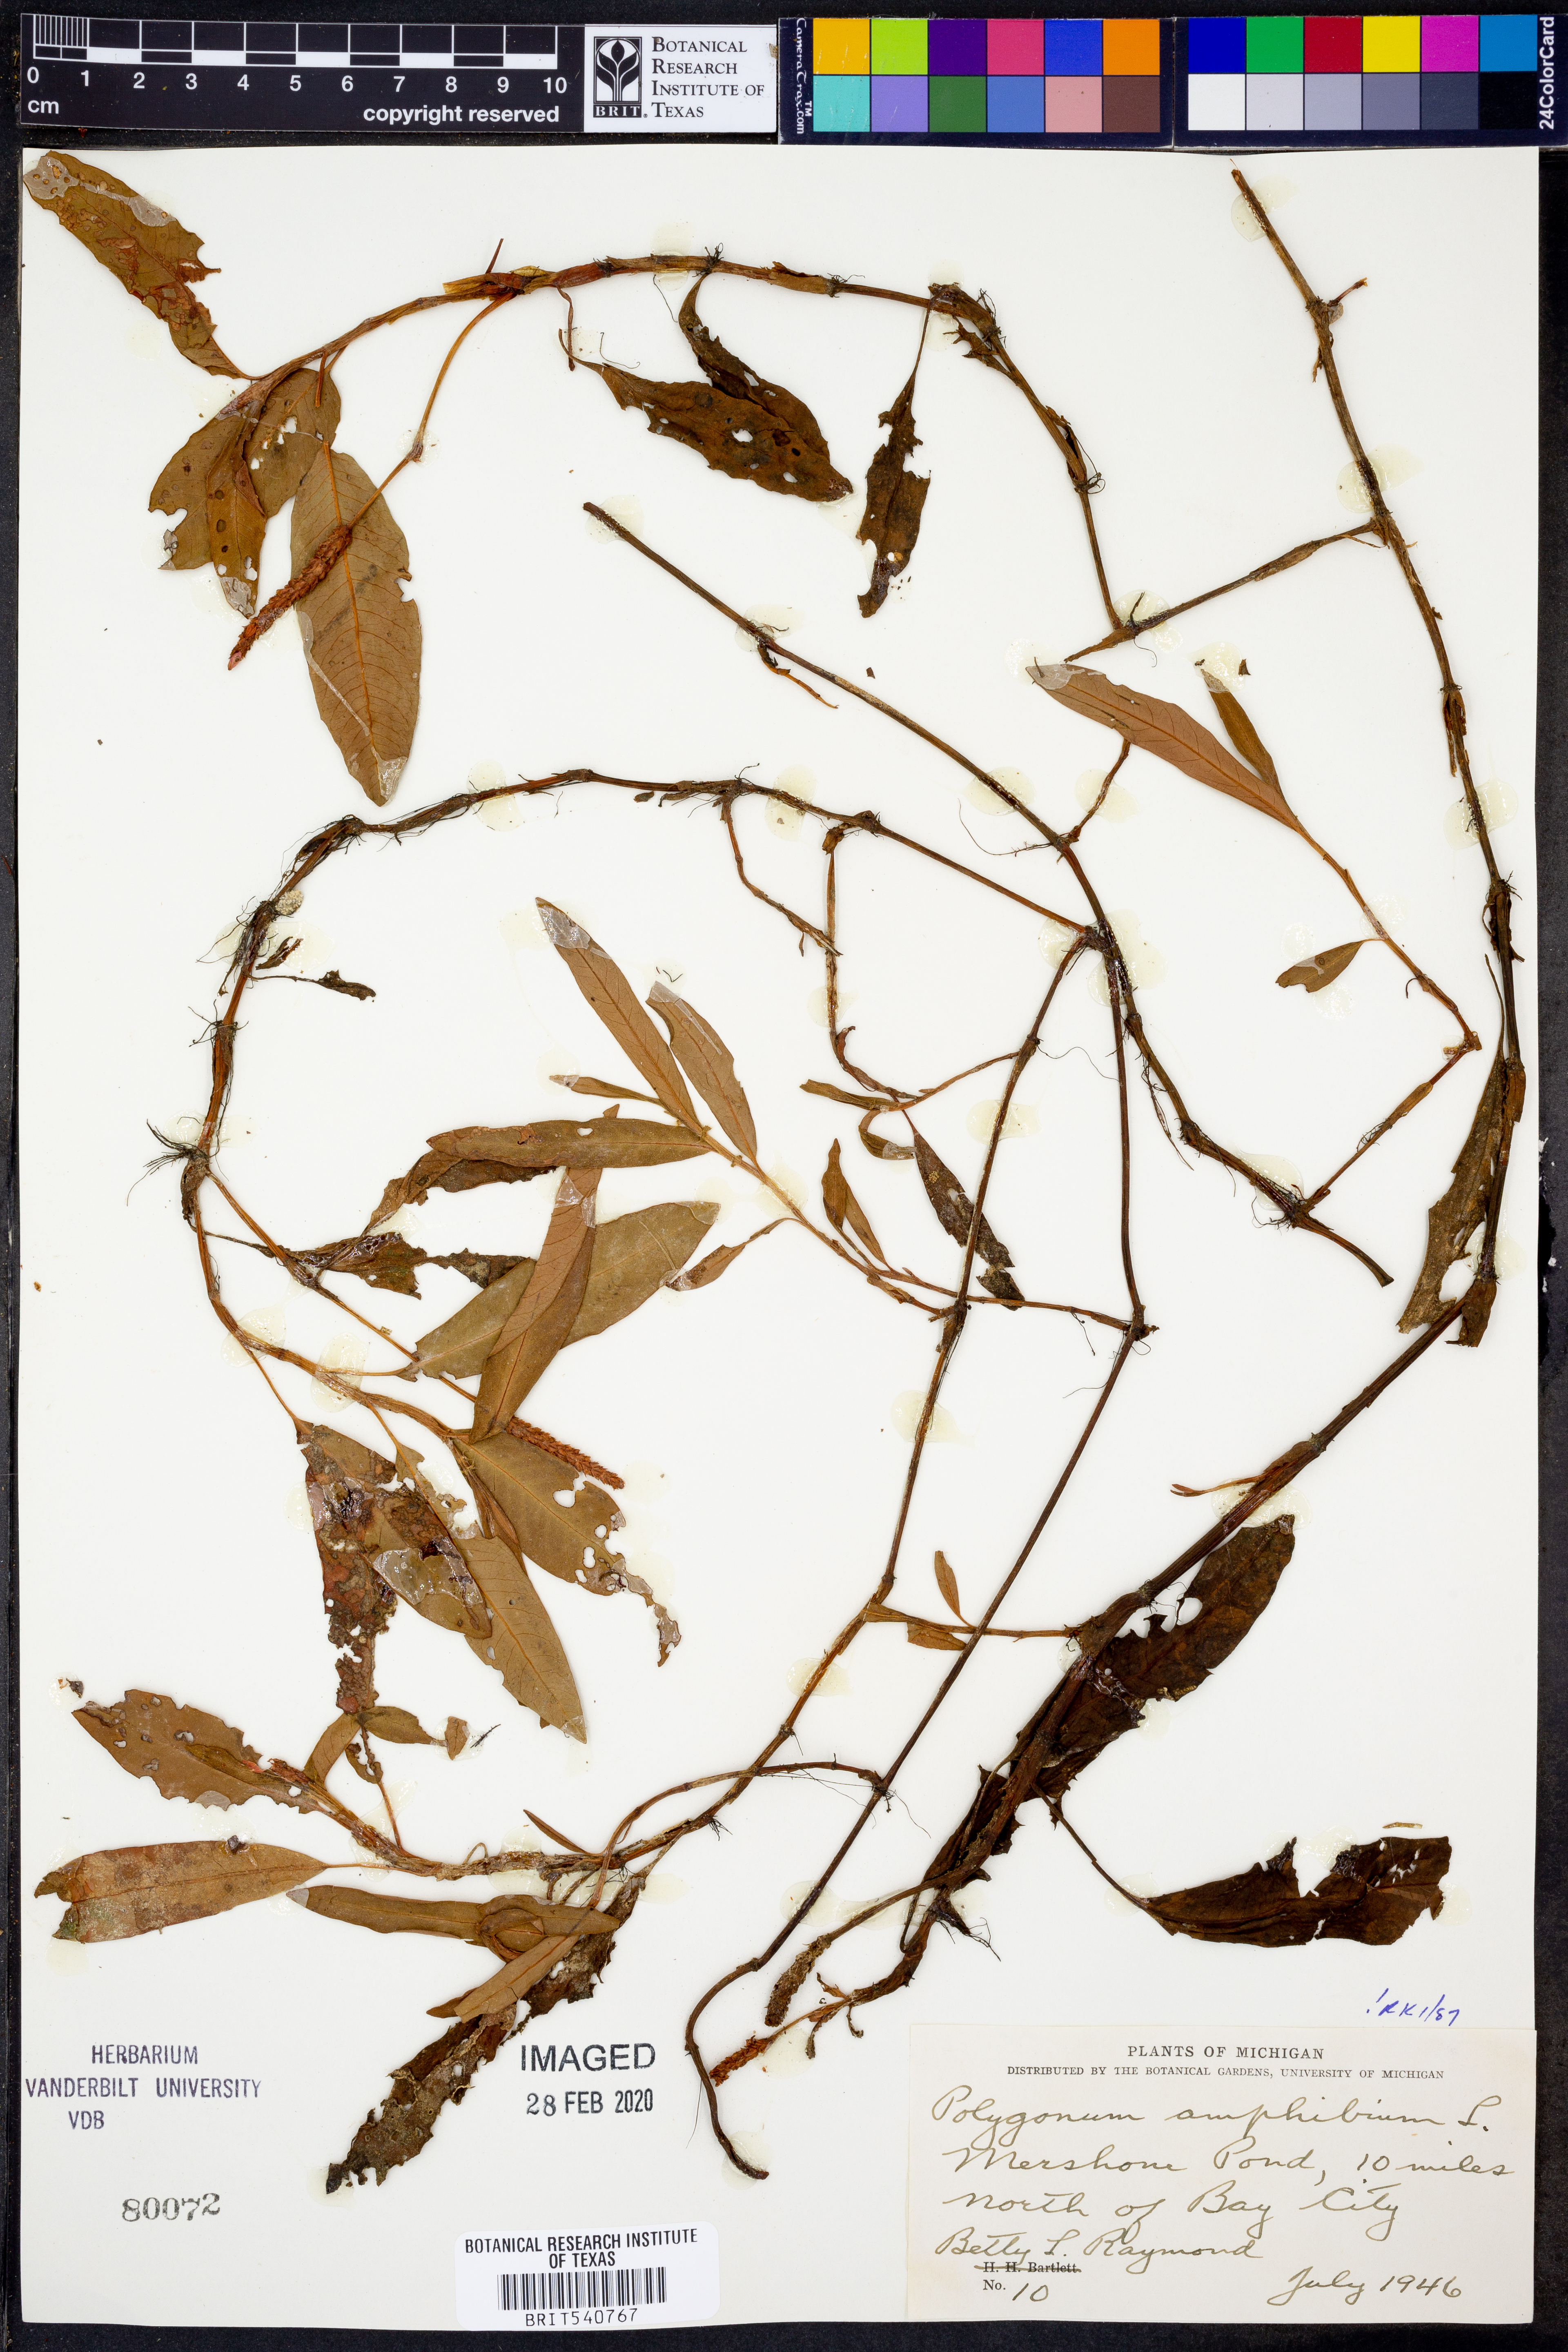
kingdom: Plantae
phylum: Tracheophyta
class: Magnoliopsida
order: Caryophyllales
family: Polygonaceae
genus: Persicaria
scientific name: Persicaria amphibia
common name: Amphibious bistort
